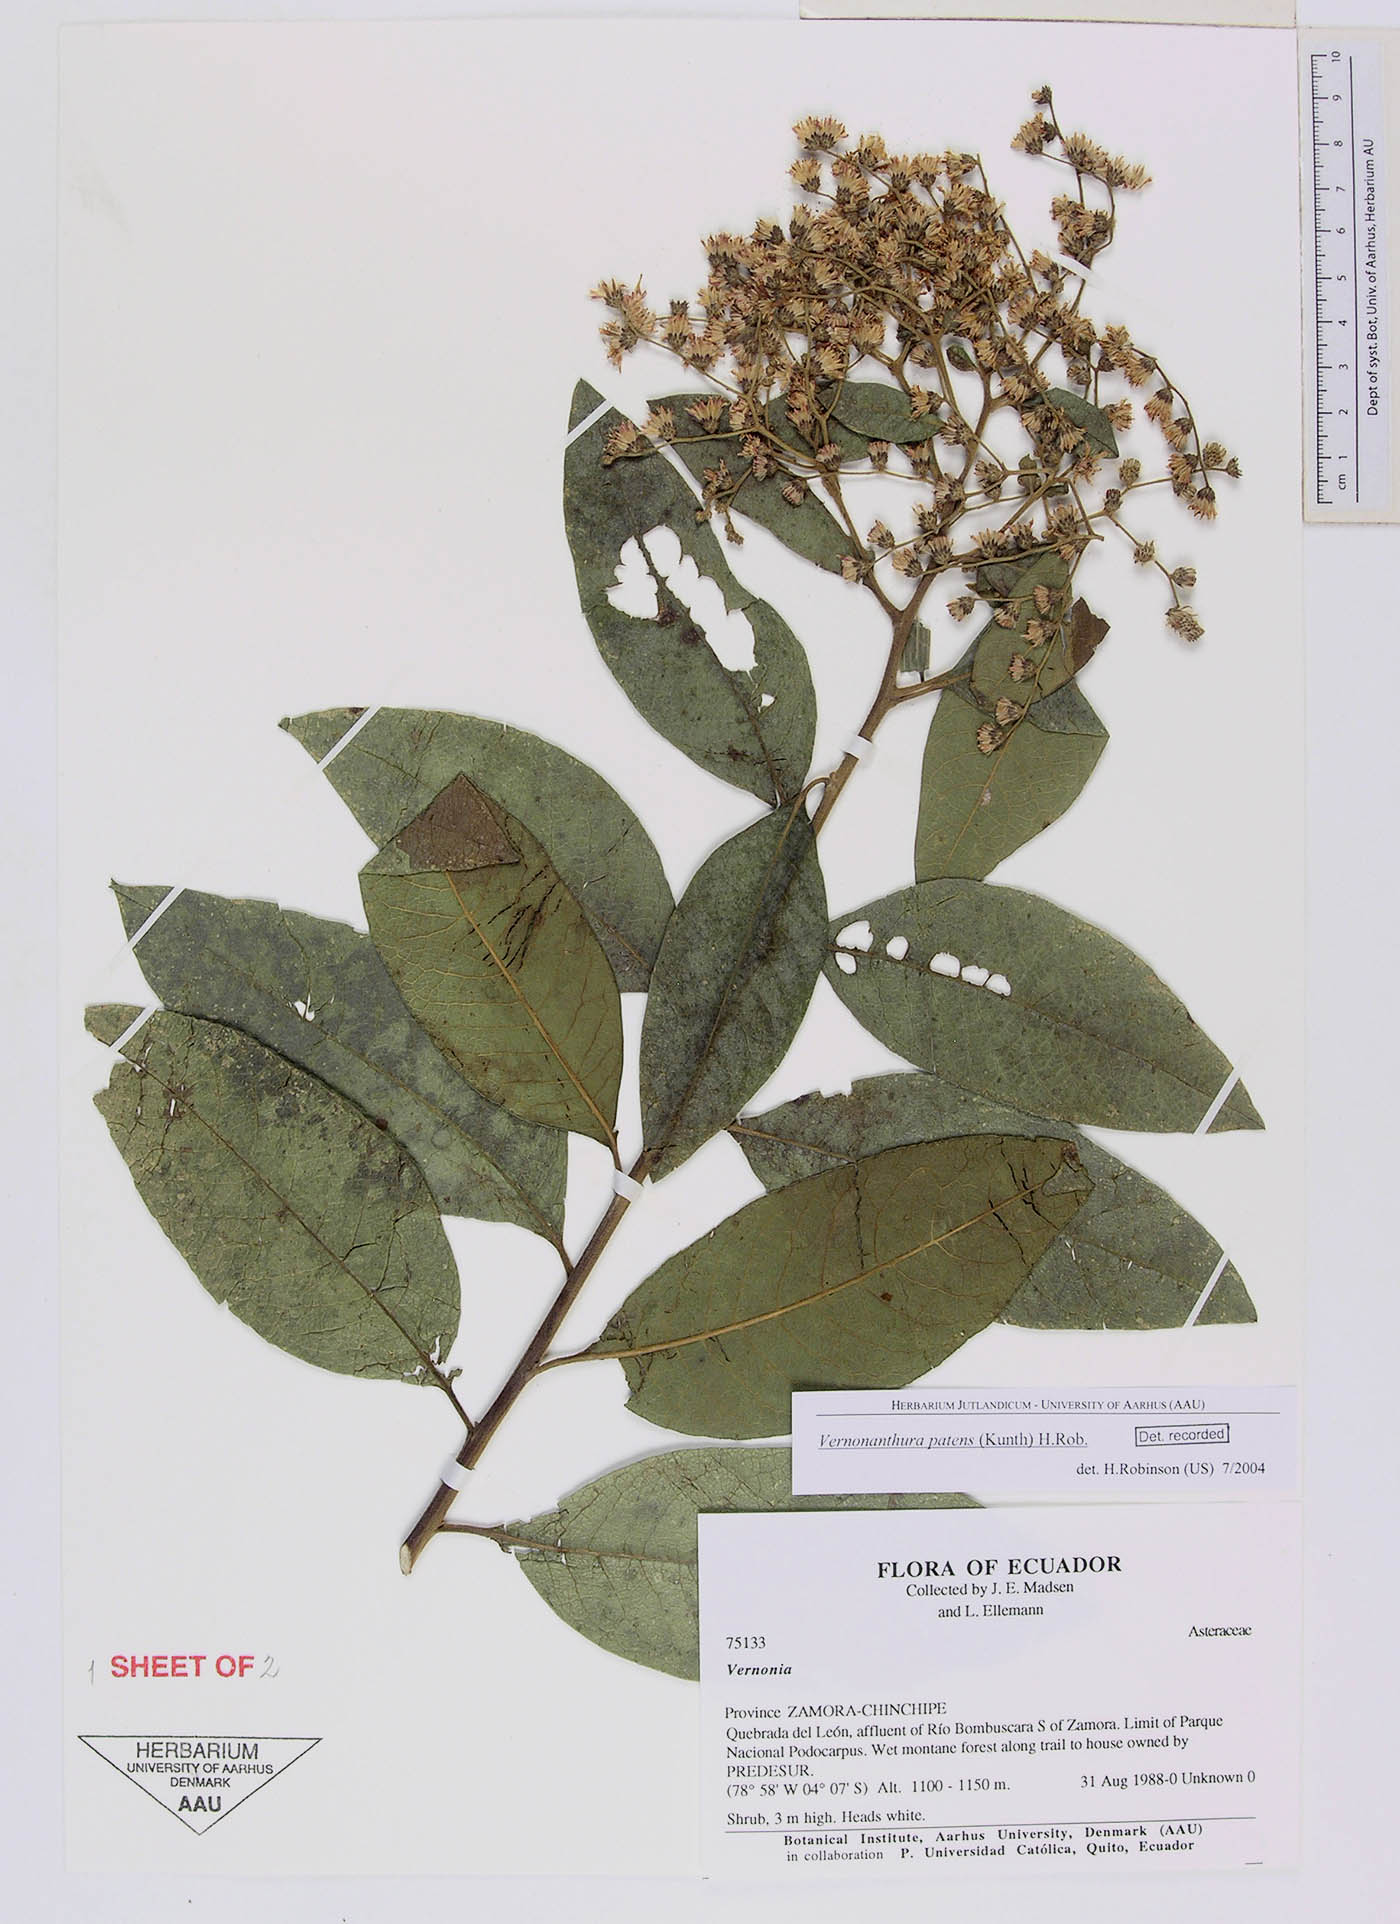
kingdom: Plantae
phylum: Tracheophyta
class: Magnoliopsida
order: Asterales
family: Asteraceae
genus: Vernonanthura
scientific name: Vernonanthura patens
